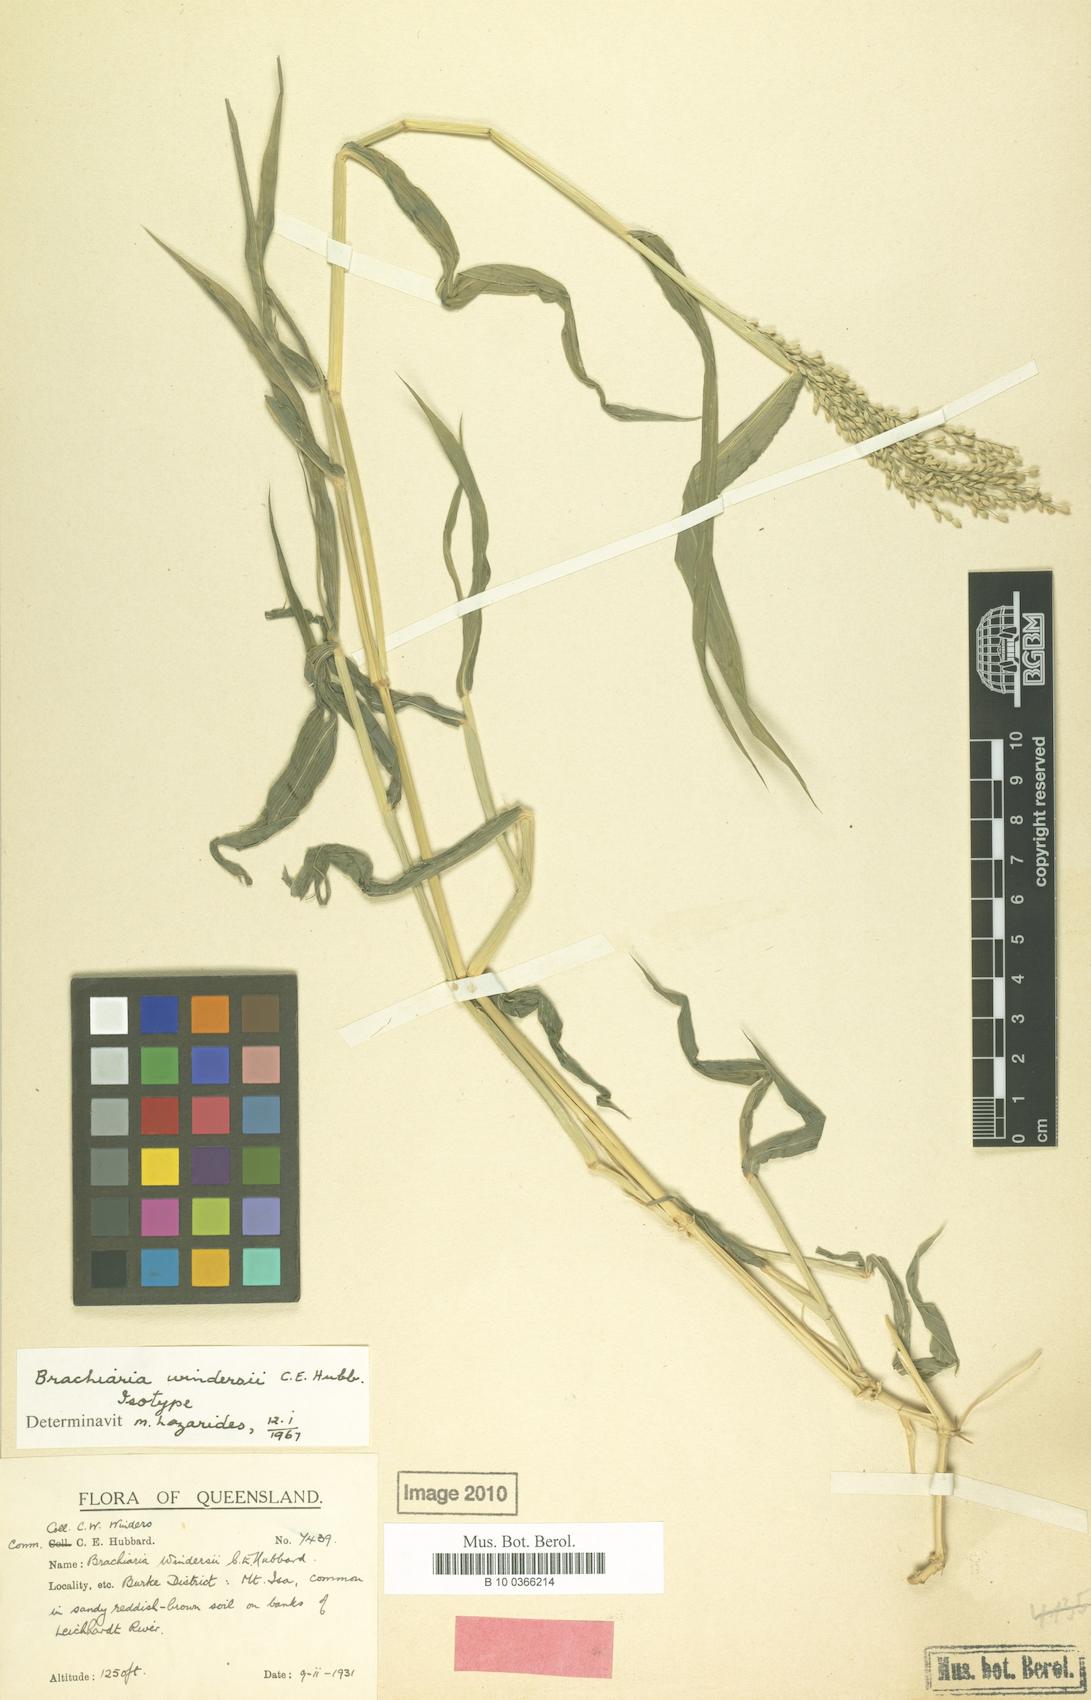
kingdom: Plantae
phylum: Tracheophyta
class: Liliopsida
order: Poales
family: Poaceae
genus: Urochloa
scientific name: Urochloa whiteana
